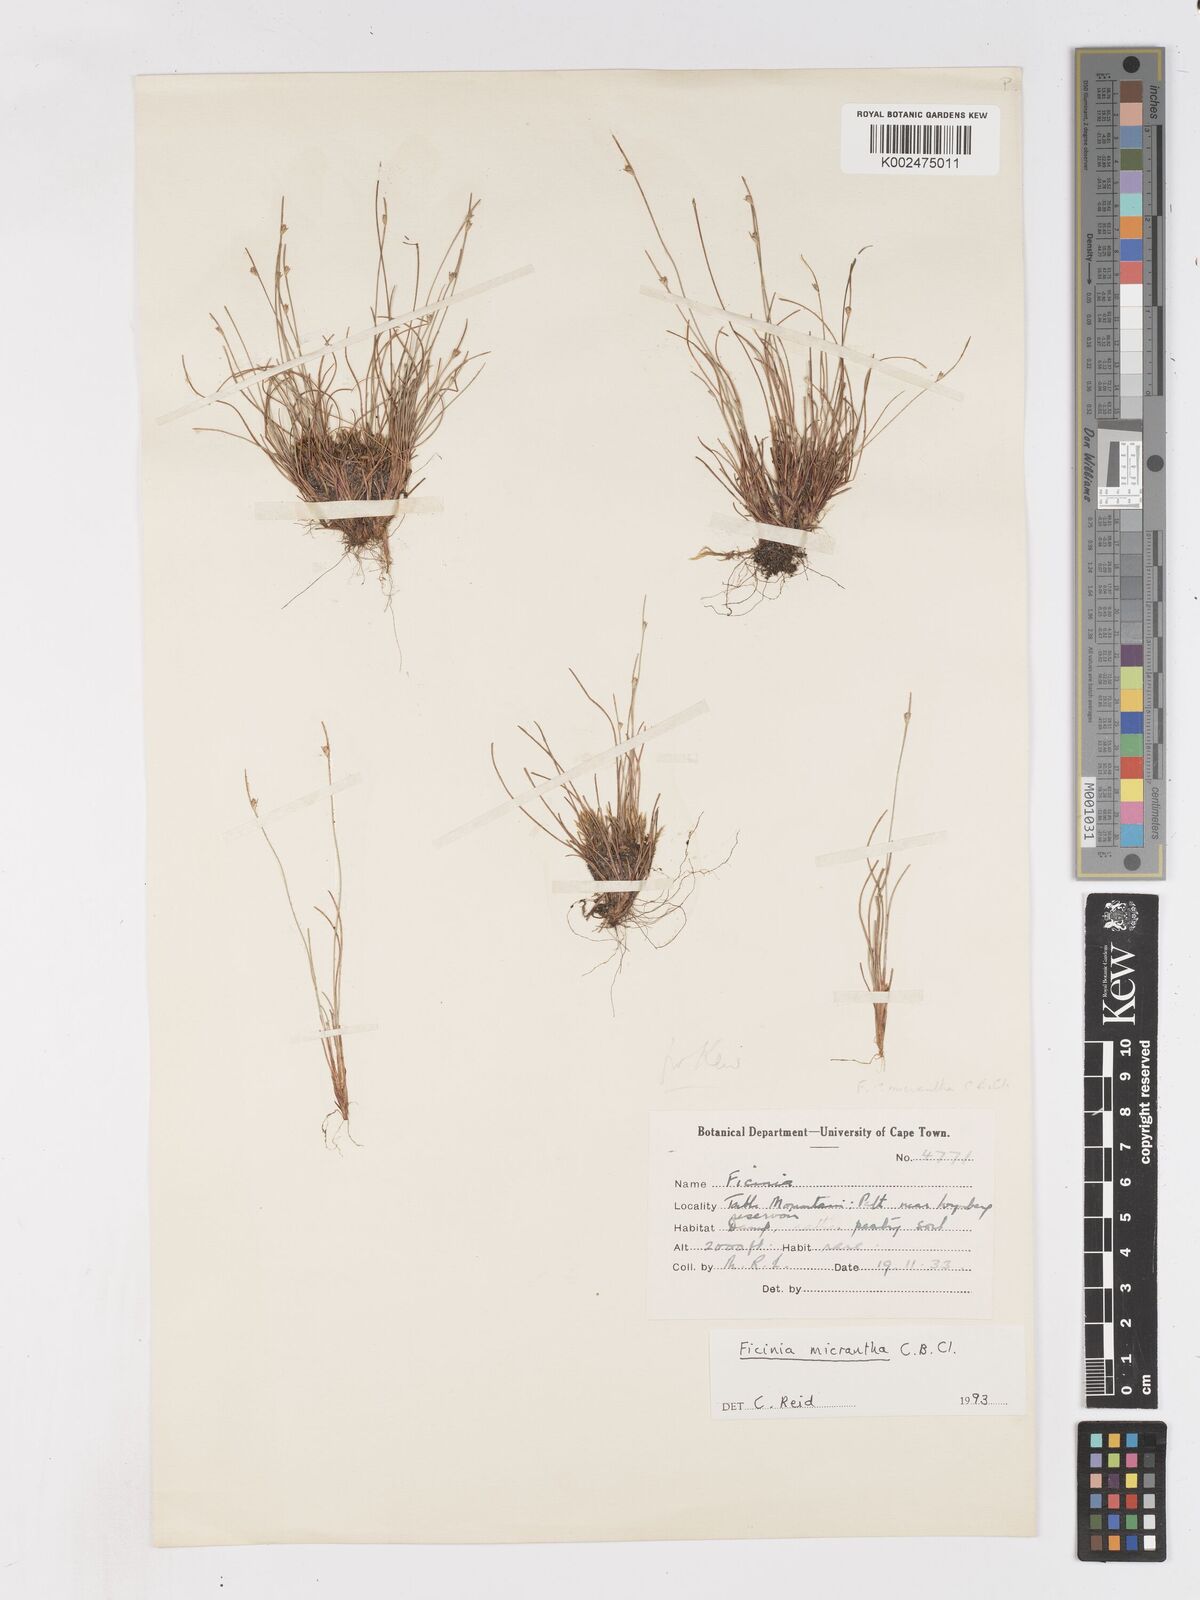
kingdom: Plantae
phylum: Tracheophyta
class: Liliopsida
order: Poales
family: Cyperaceae
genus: Ficinia
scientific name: Ficinia micrantha
